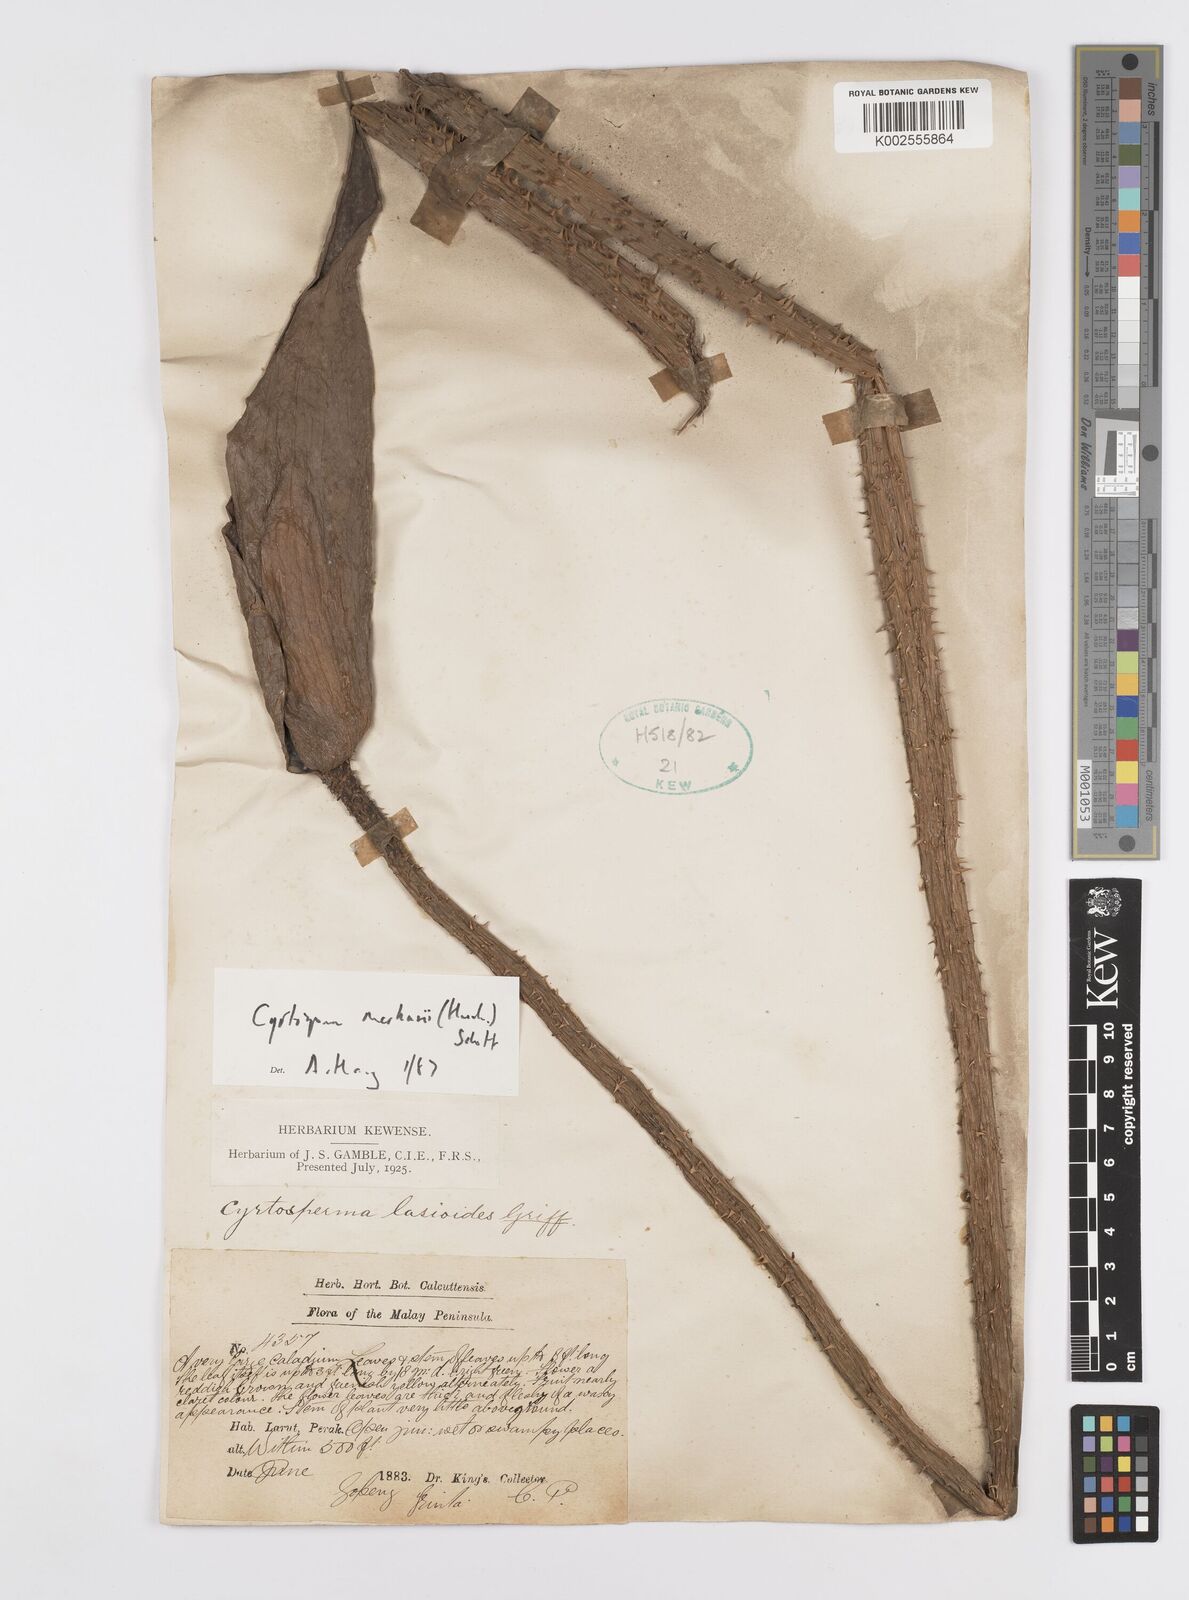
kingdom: Plantae
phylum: Tracheophyta
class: Liliopsida
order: Alismatales
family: Araceae
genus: Cyrtosperma
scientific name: Cyrtosperma merkusii
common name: Giant swamp-taro
